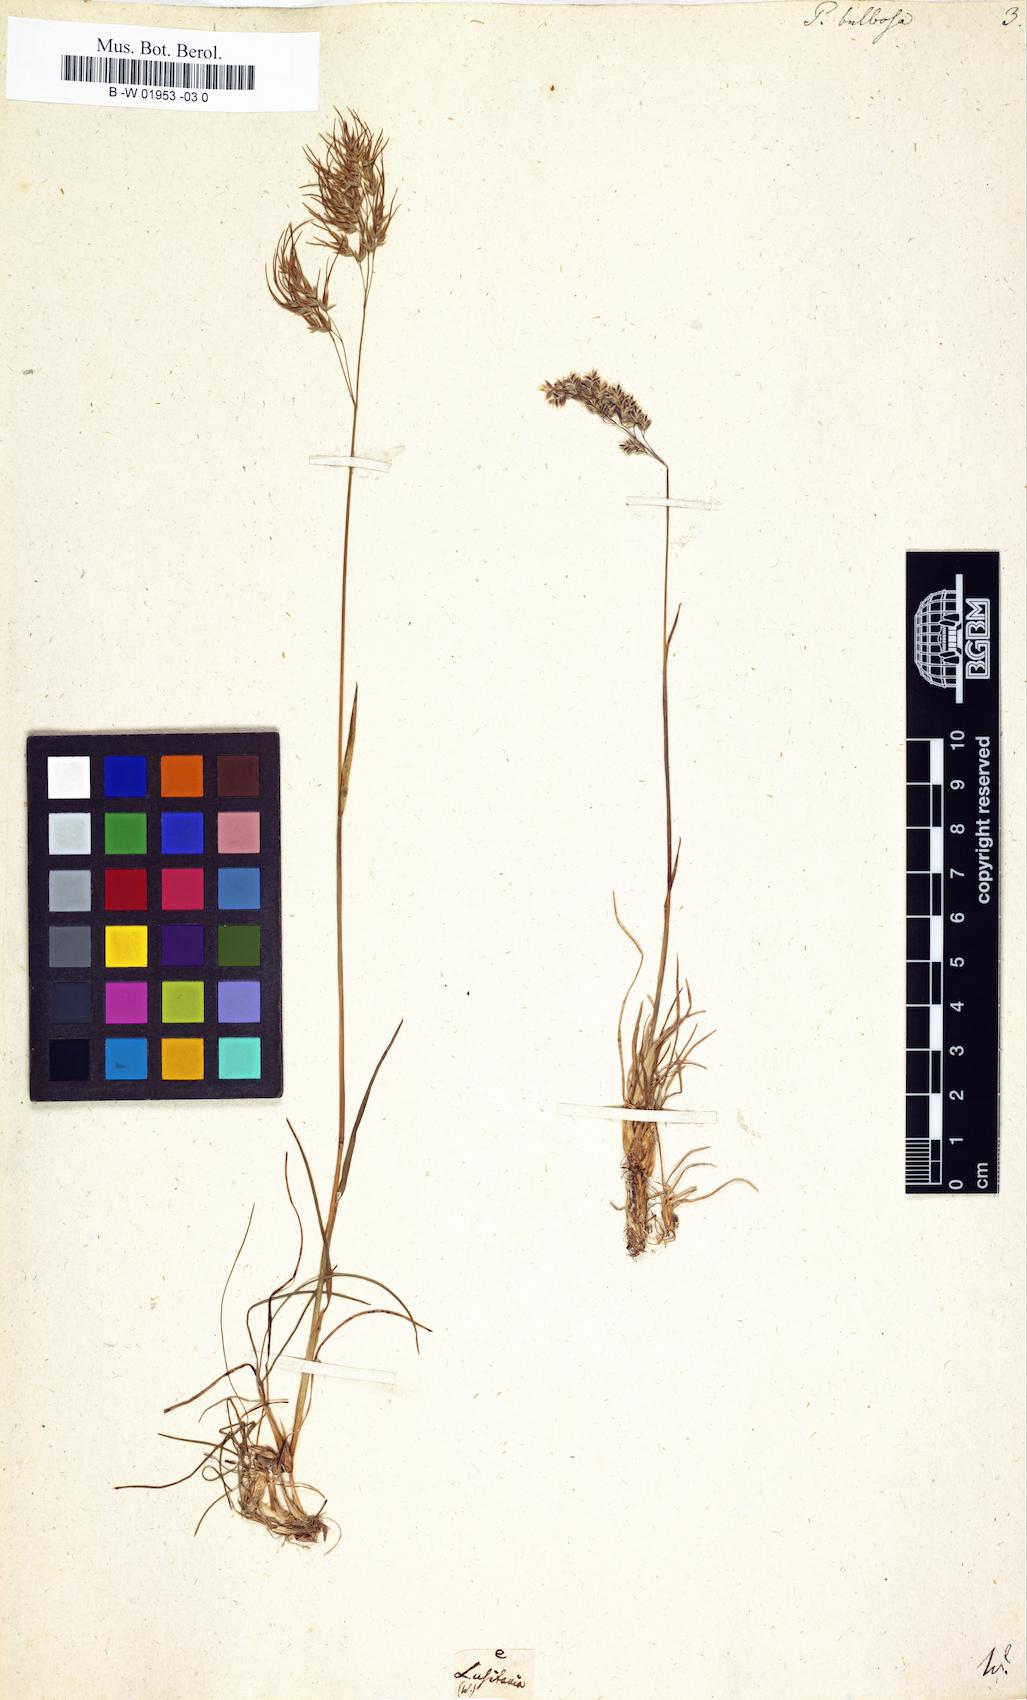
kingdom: Plantae
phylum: Tracheophyta
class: Liliopsida
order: Poales
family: Poaceae
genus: Poa
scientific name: Poa bulbosa
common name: Bulbous bluegrass
